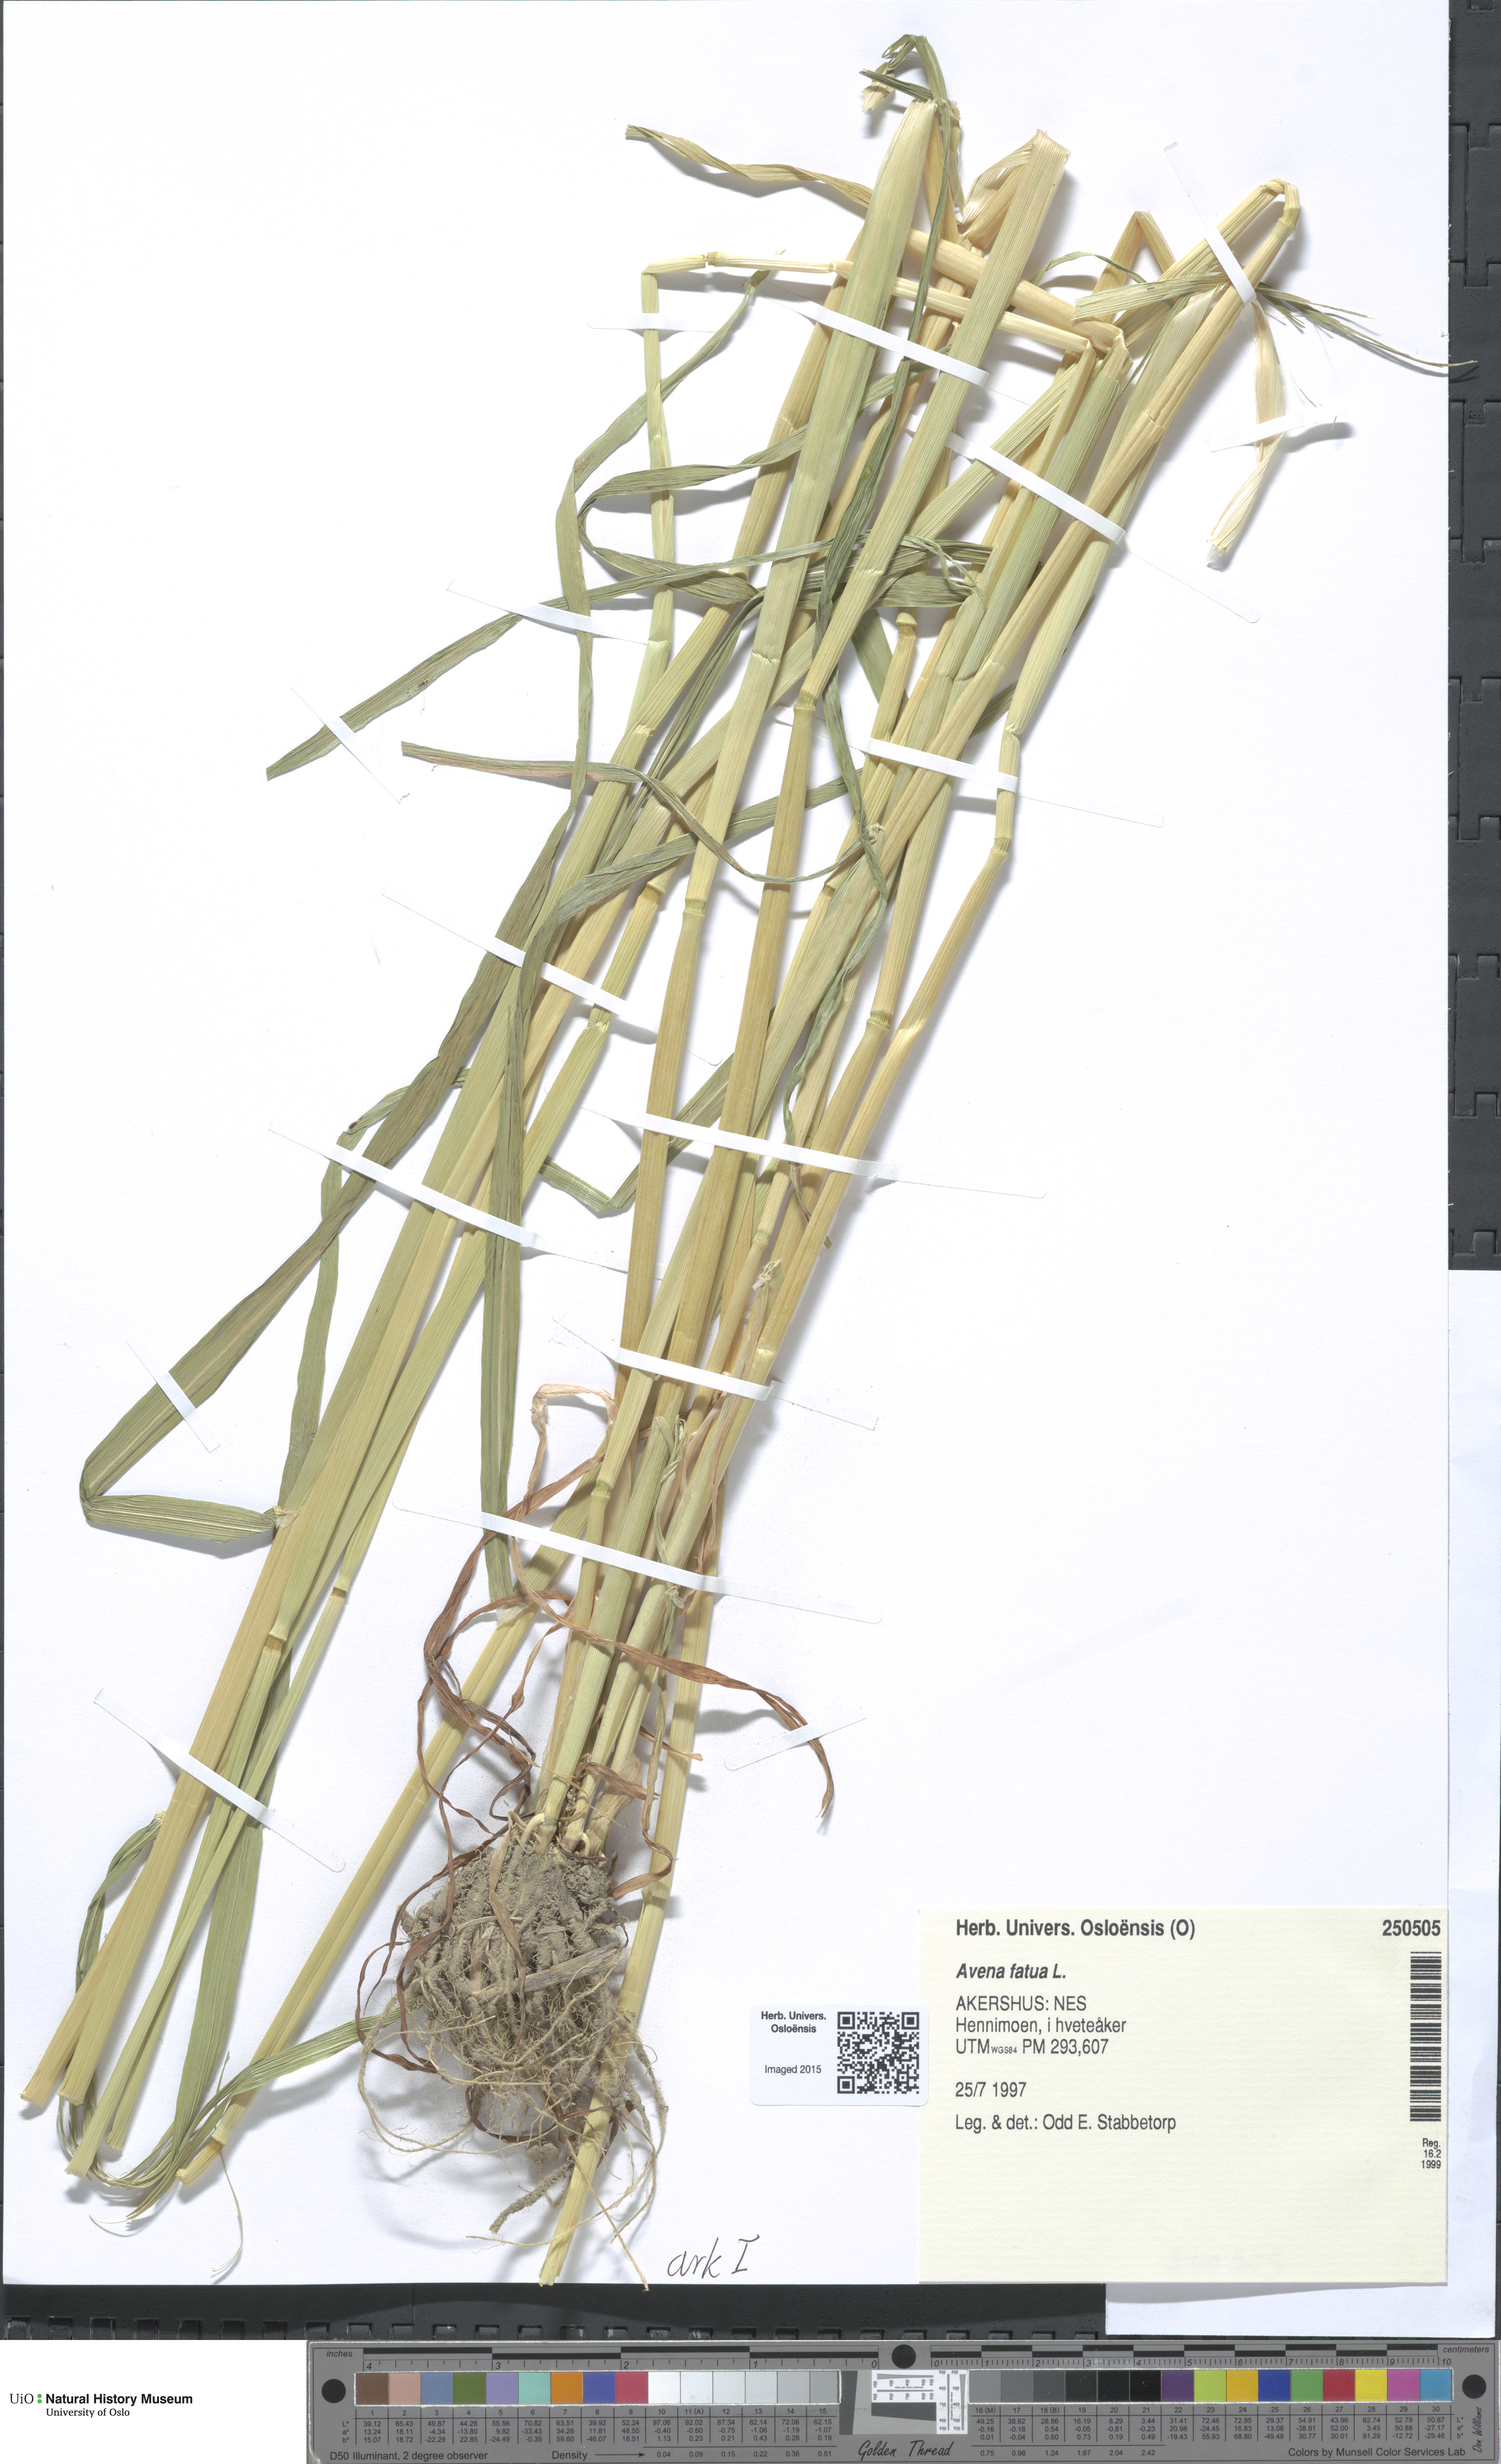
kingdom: Plantae
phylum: Tracheophyta
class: Liliopsida
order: Poales
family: Poaceae
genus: Avena
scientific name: Avena fatua
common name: Wild oat
